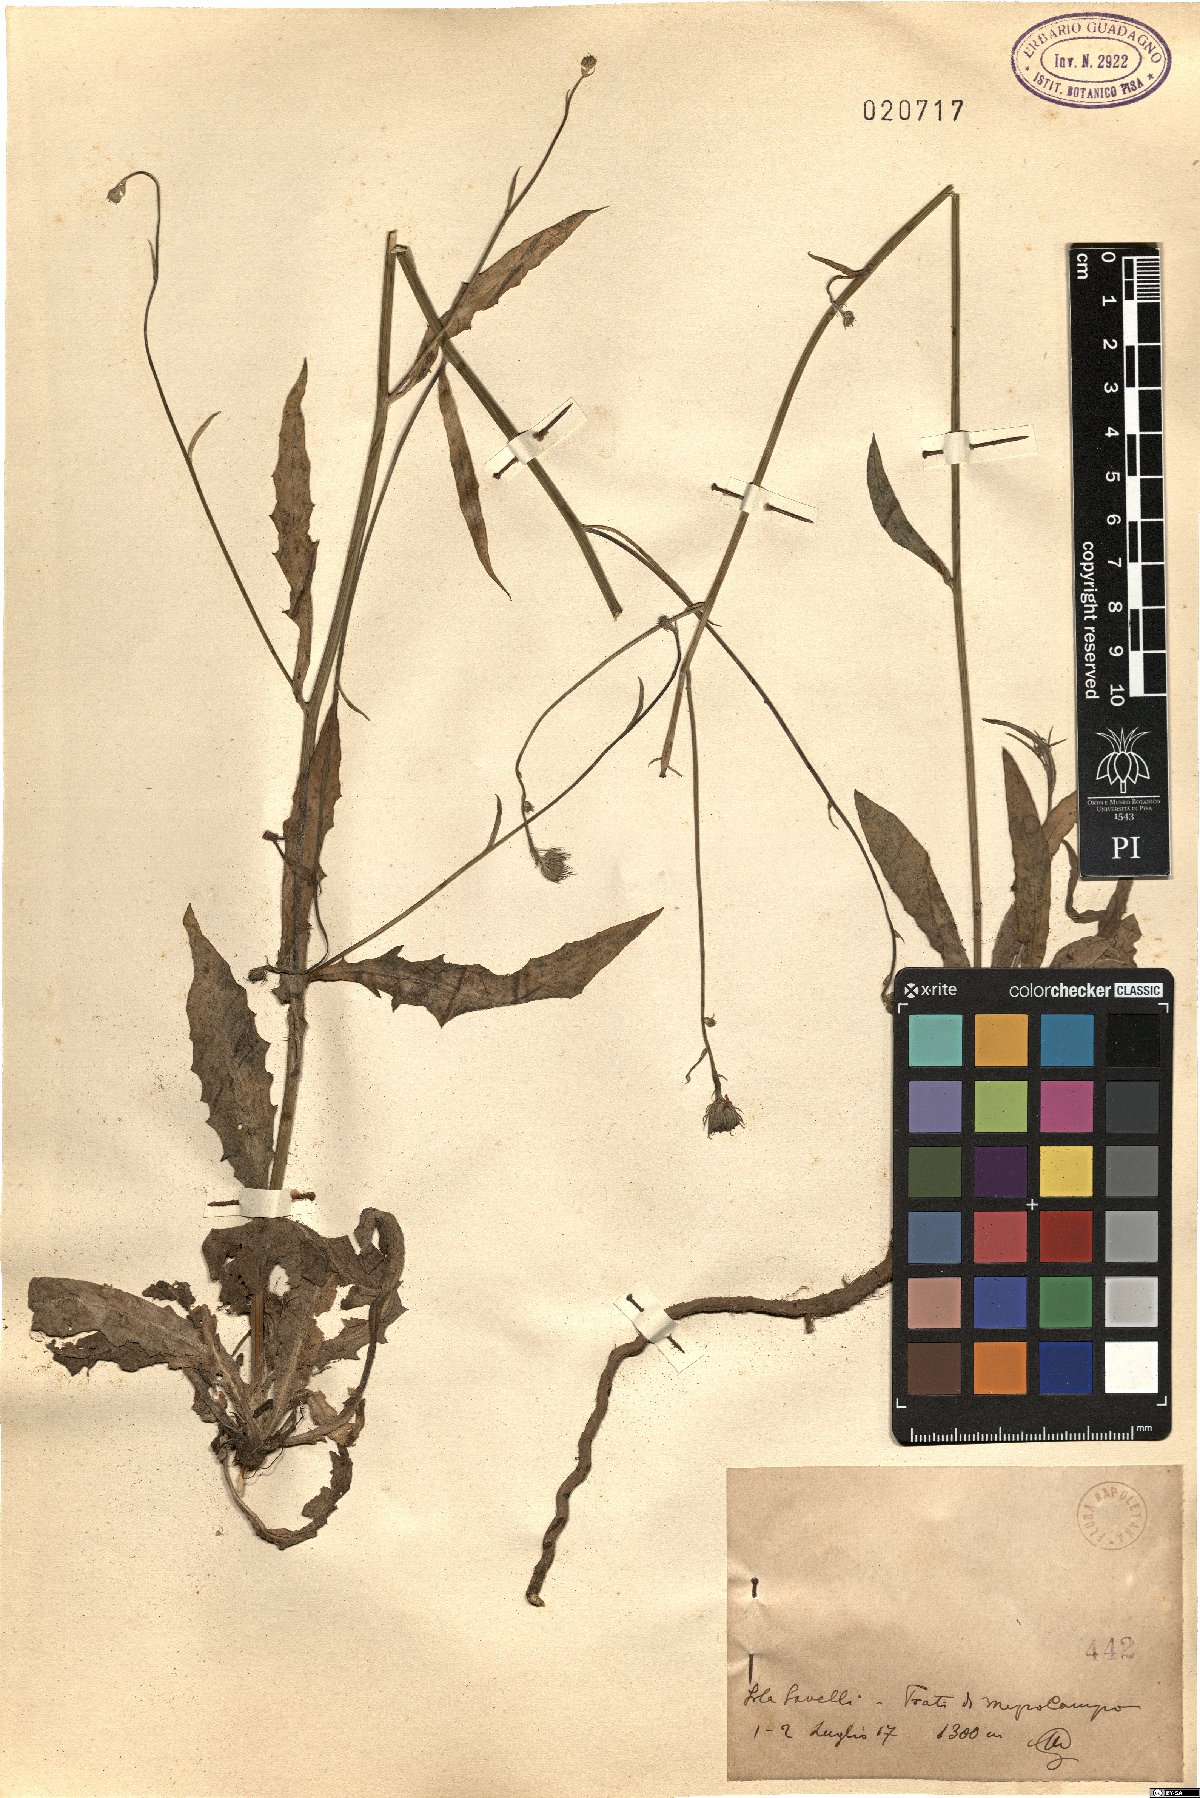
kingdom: Plantae
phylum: Tracheophyta
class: Magnoliopsida
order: Asterales
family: Asteraceae
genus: Tolpis
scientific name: Tolpis
